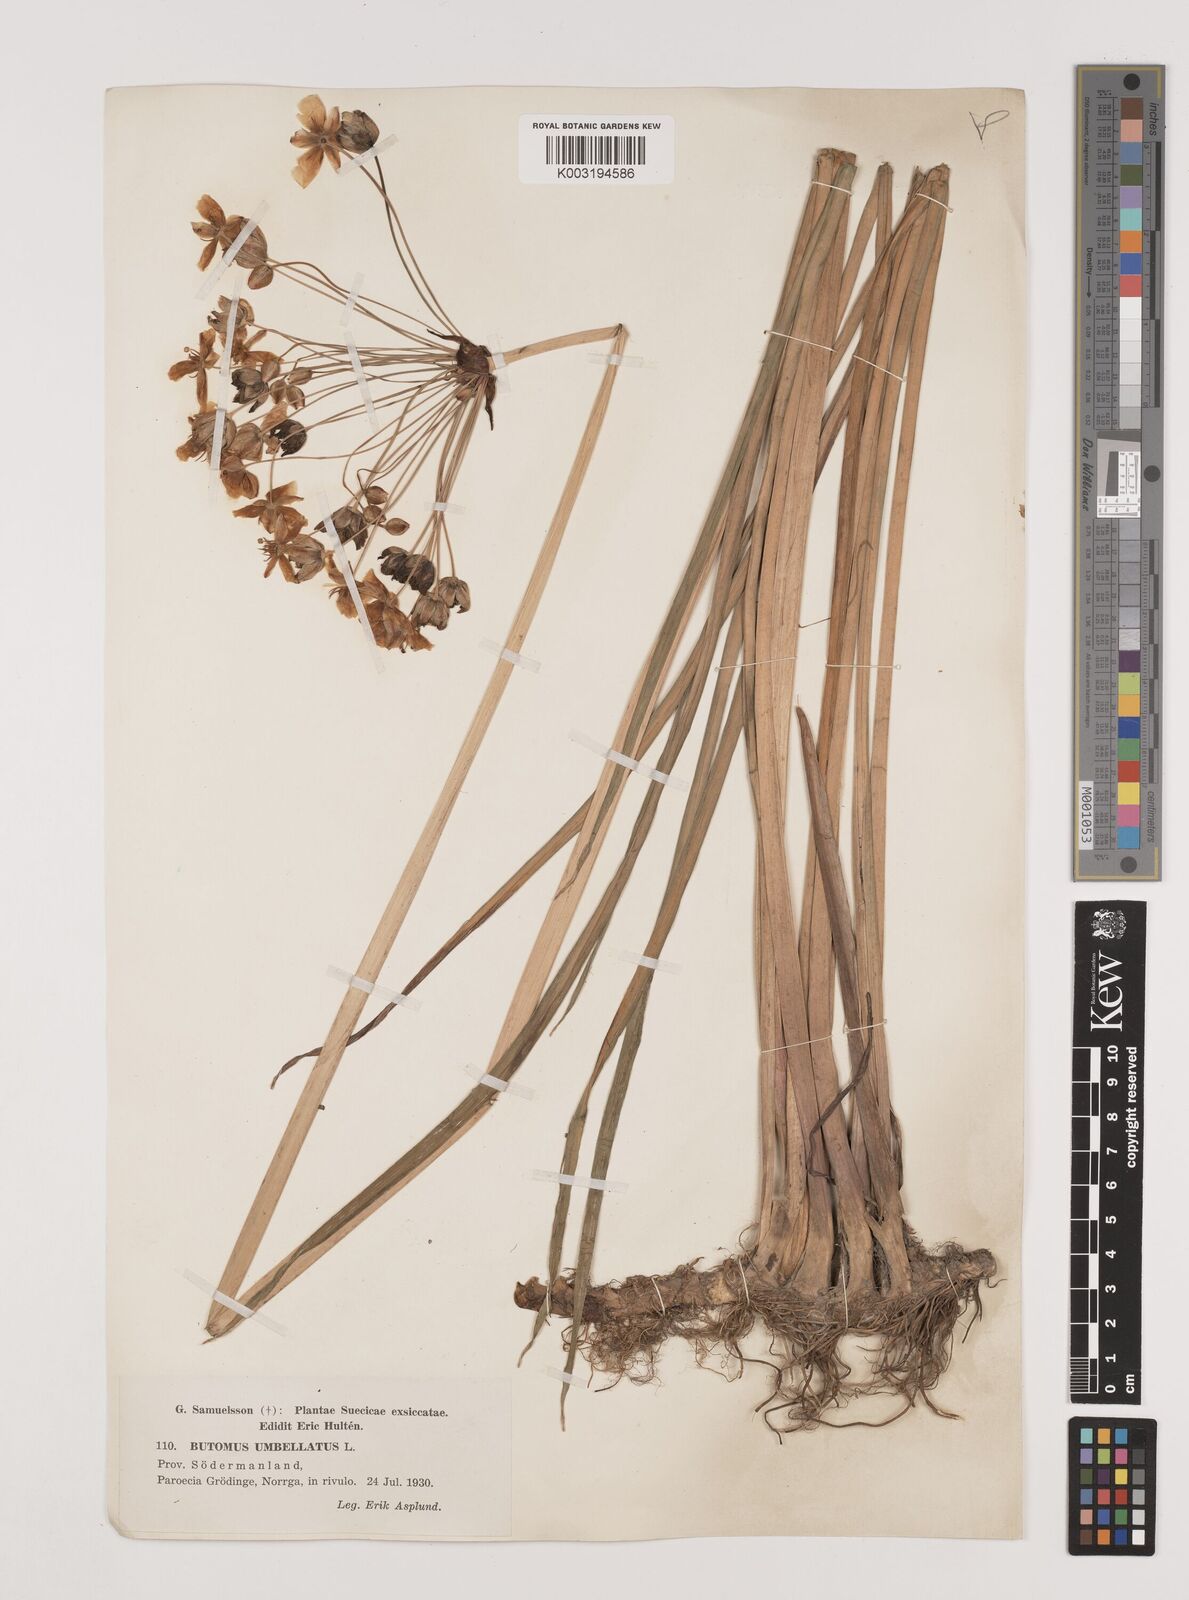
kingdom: Plantae
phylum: Tracheophyta
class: Liliopsida
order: Alismatales
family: Butomaceae
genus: Butomus
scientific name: Butomus umbellatus
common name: Flowering-rush
